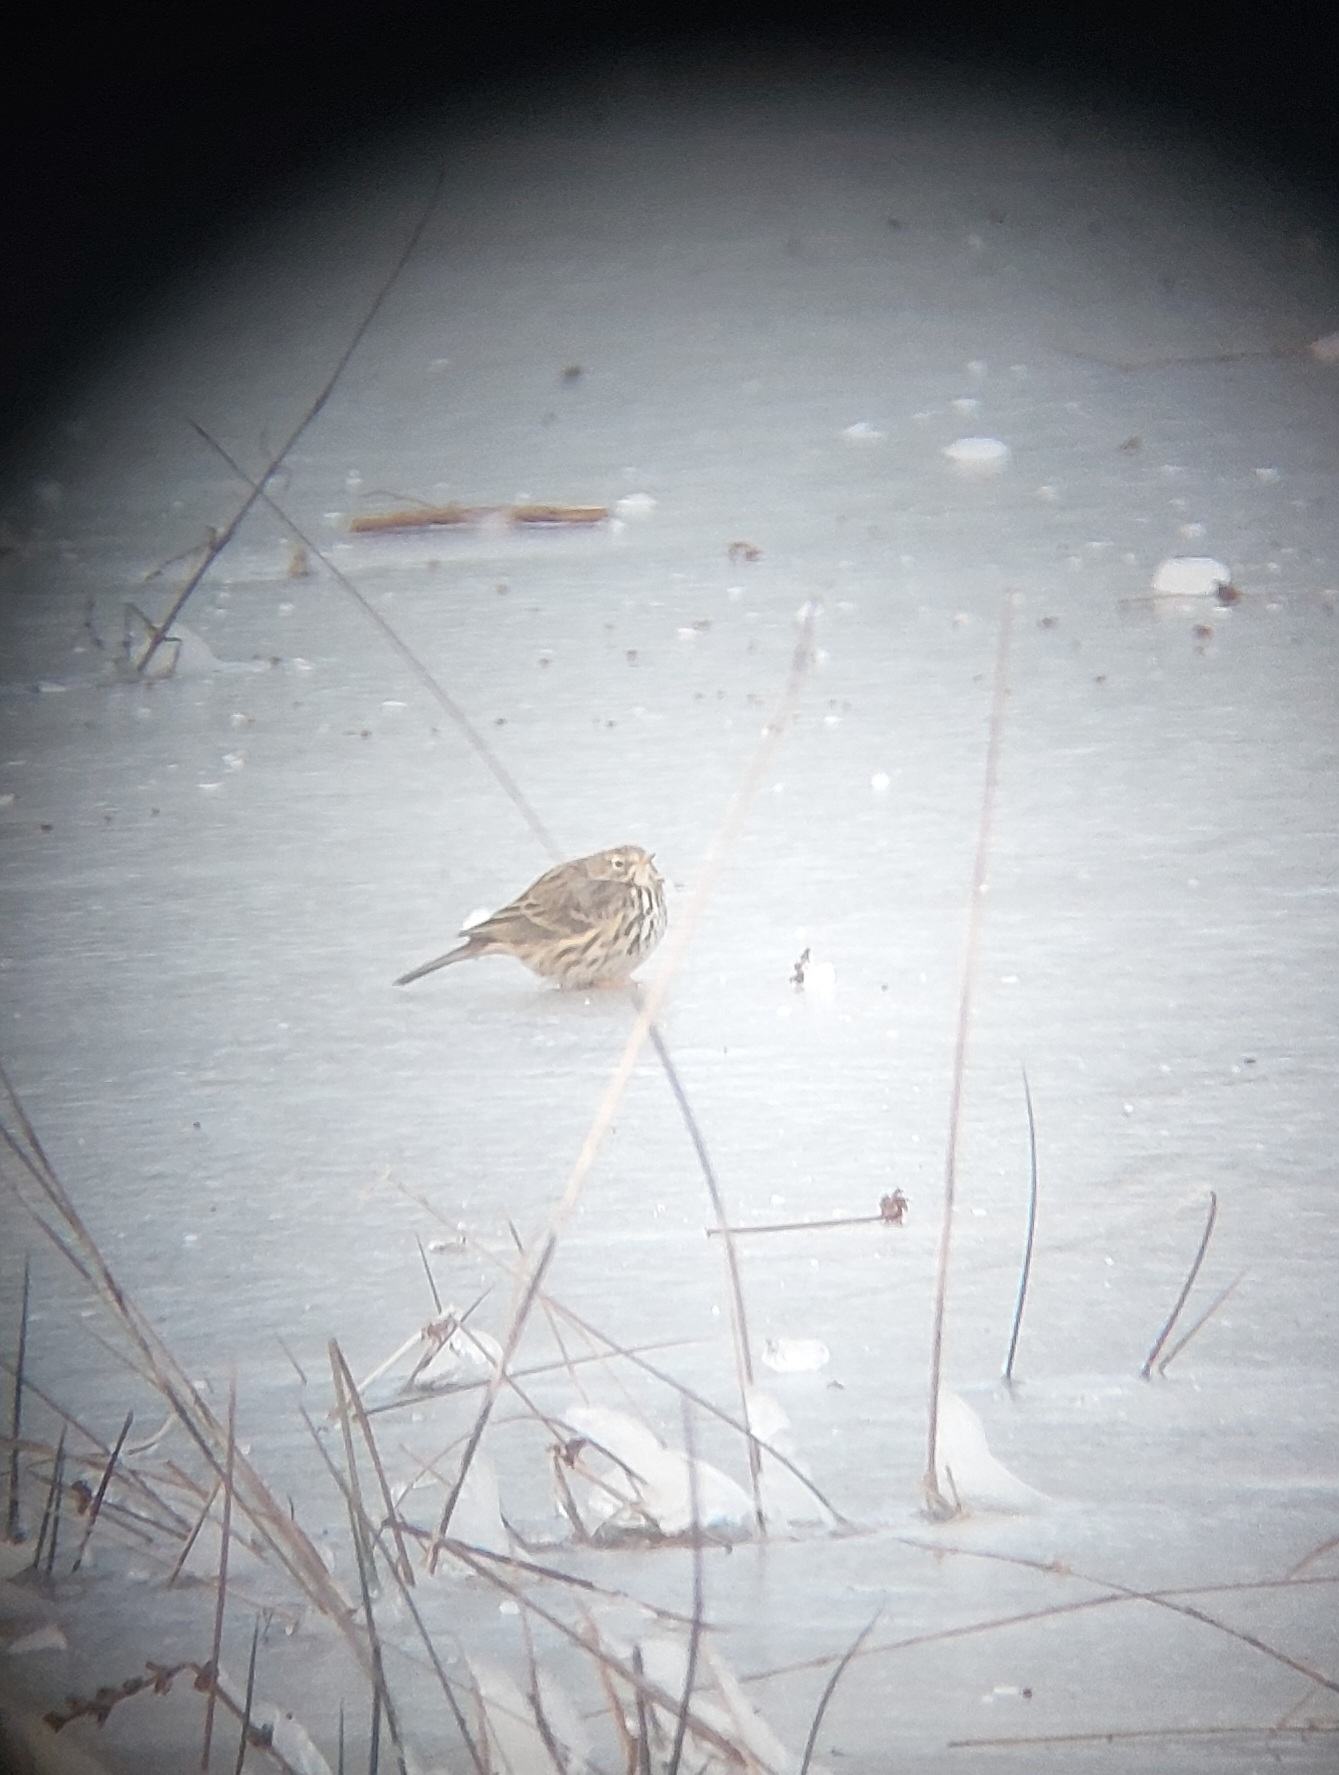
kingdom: Animalia
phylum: Chordata
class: Aves
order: Passeriformes
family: Motacillidae
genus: Anthus
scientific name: Anthus pratensis
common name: Engpiber
